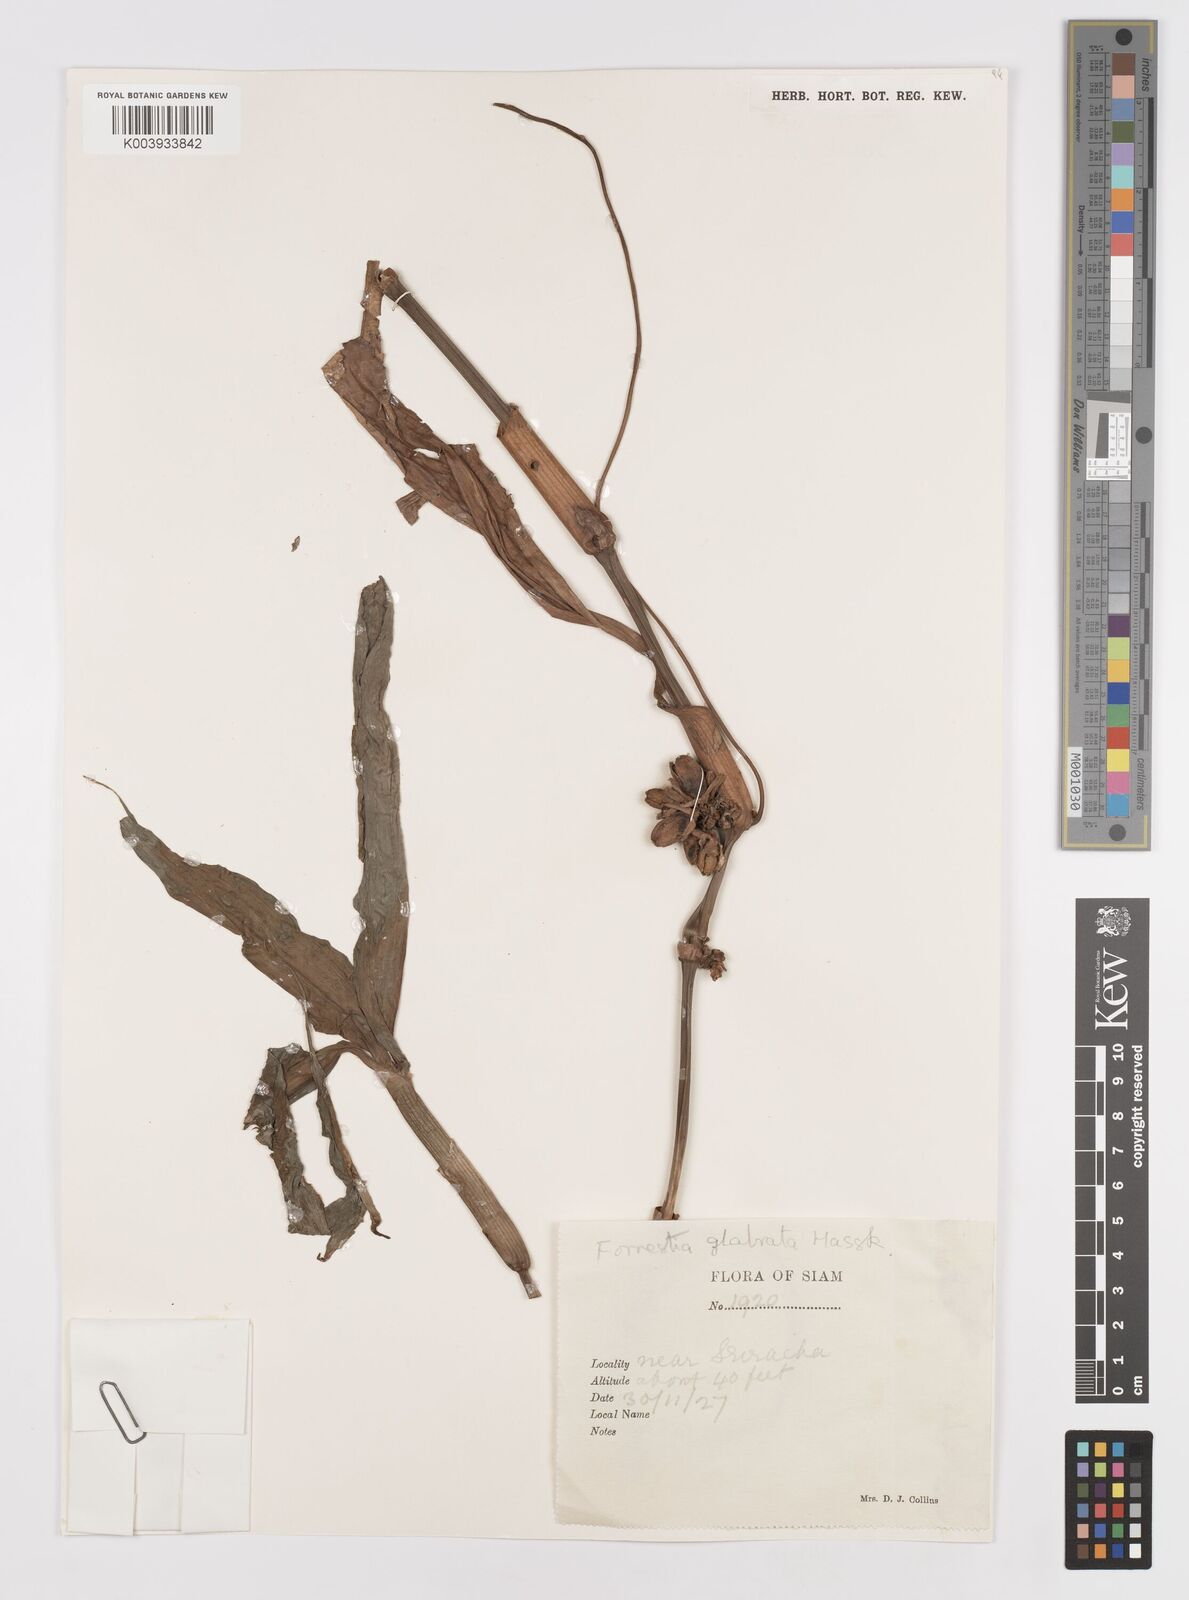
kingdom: Plantae
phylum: Tracheophyta
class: Liliopsida
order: Commelinales
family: Commelinaceae
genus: Amischotolype
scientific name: Amischotolype glabrata
